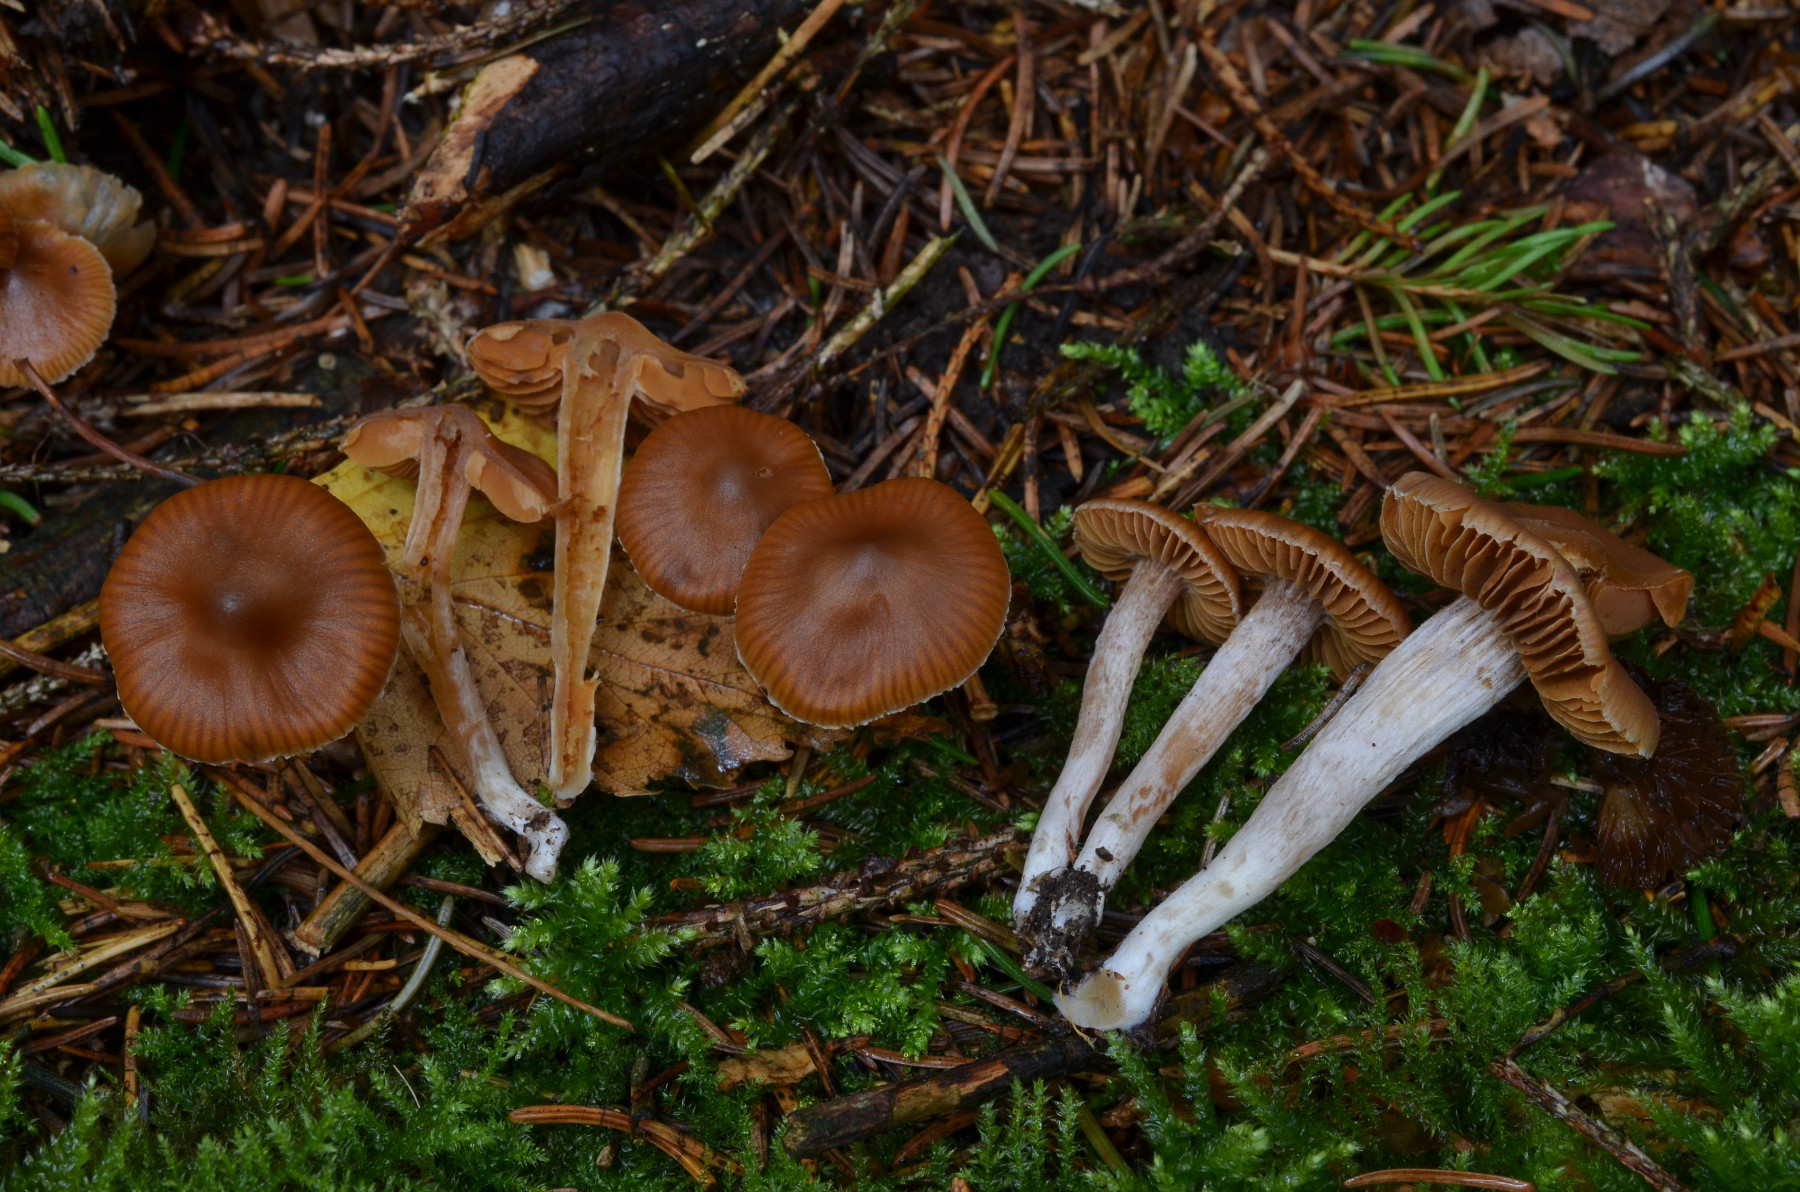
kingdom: Fungi
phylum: Basidiomycota
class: Agaricomycetes
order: Agaricales
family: Cortinariaceae
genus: Cortinarius
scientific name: Cortinarius obtusorum
